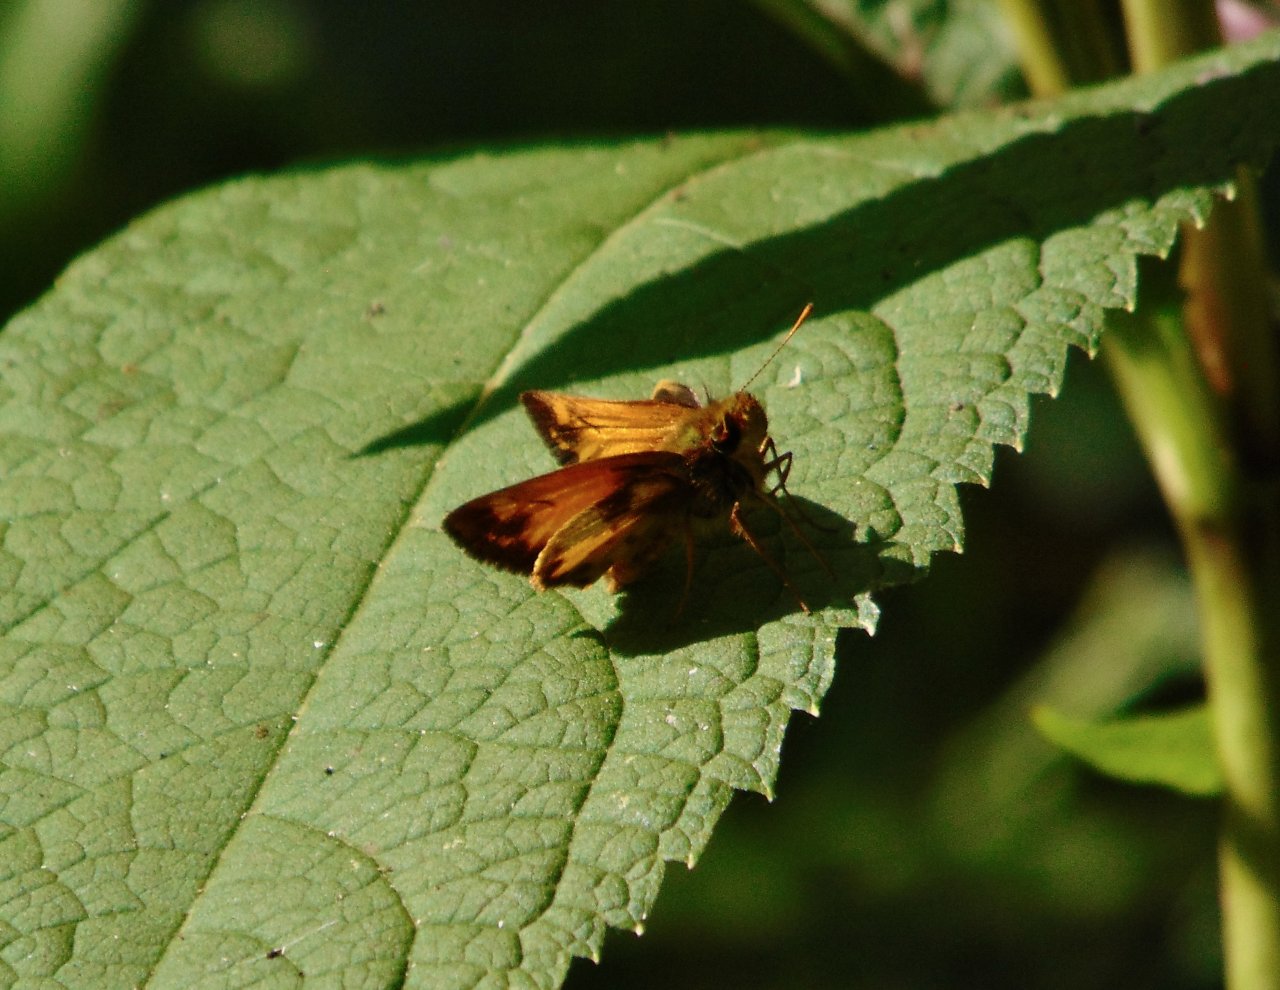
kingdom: Animalia
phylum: Arthropoda
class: Insecta
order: Lepidoptera
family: Hesperiidae
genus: Lon
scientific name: Lon zabulon
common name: Zabulon Skipper
